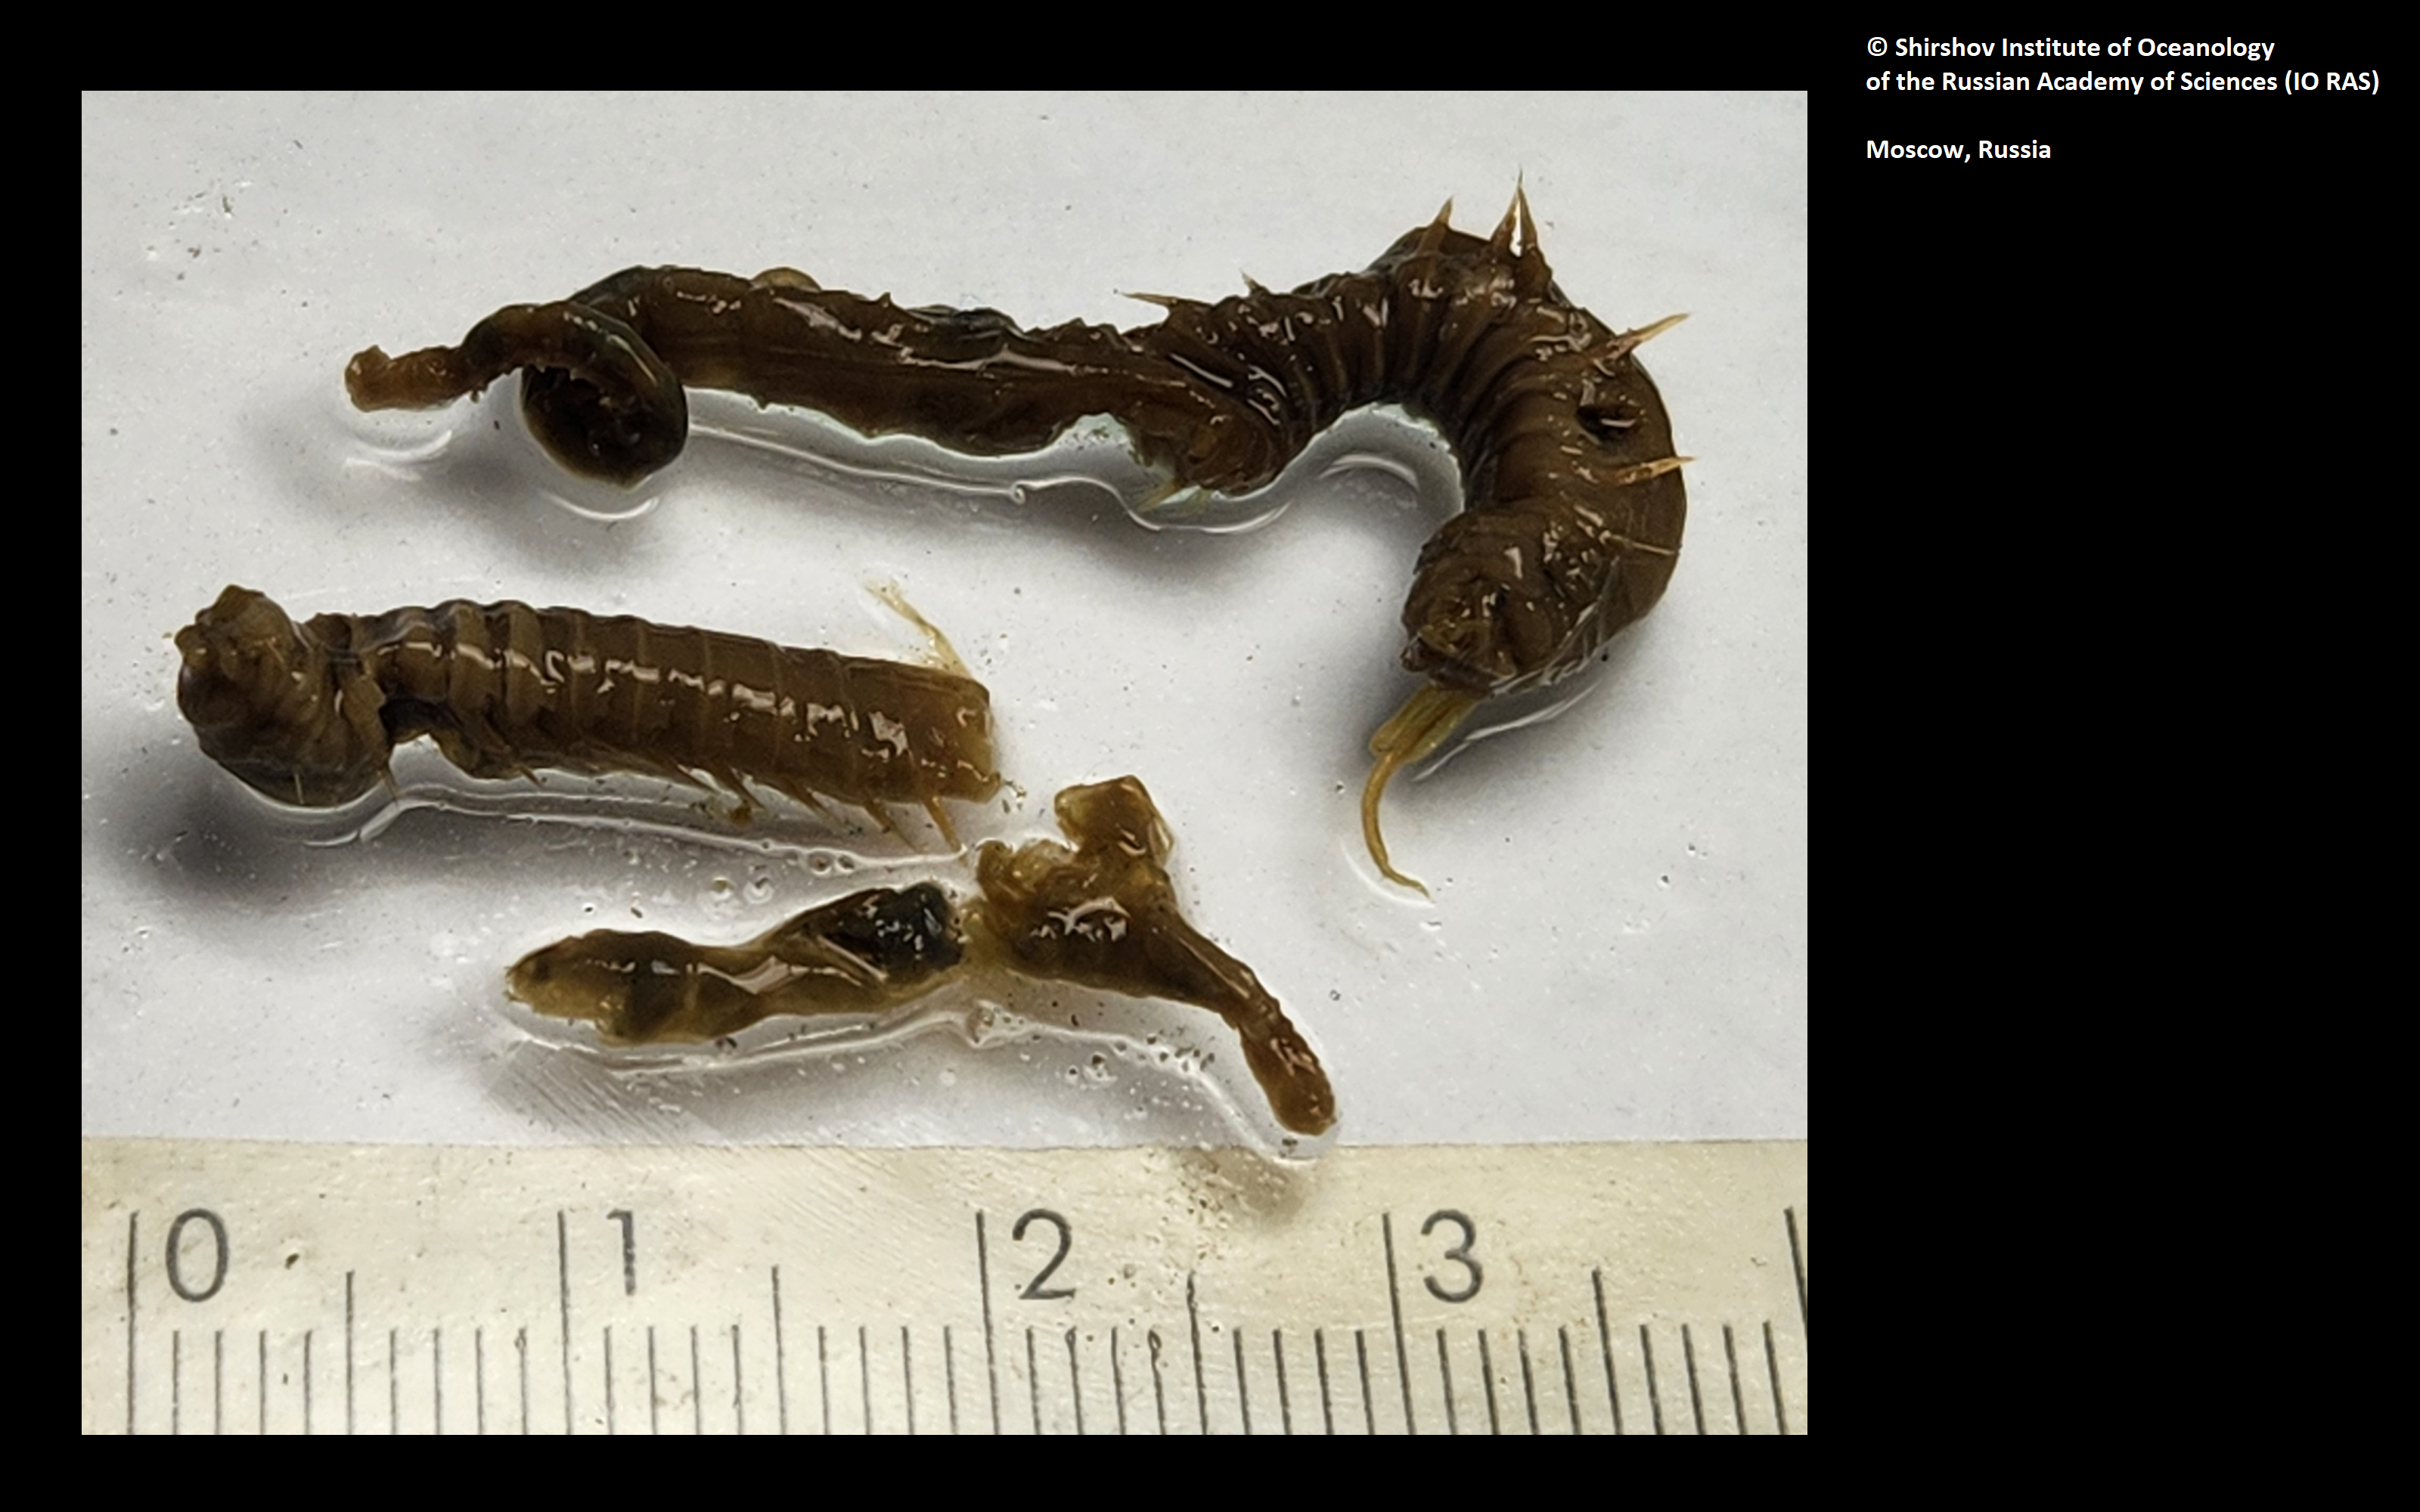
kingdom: Animalia
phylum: Annelida
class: Polychaeta
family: Ampharetidae
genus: Grubianella
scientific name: Grubianella cirratus
